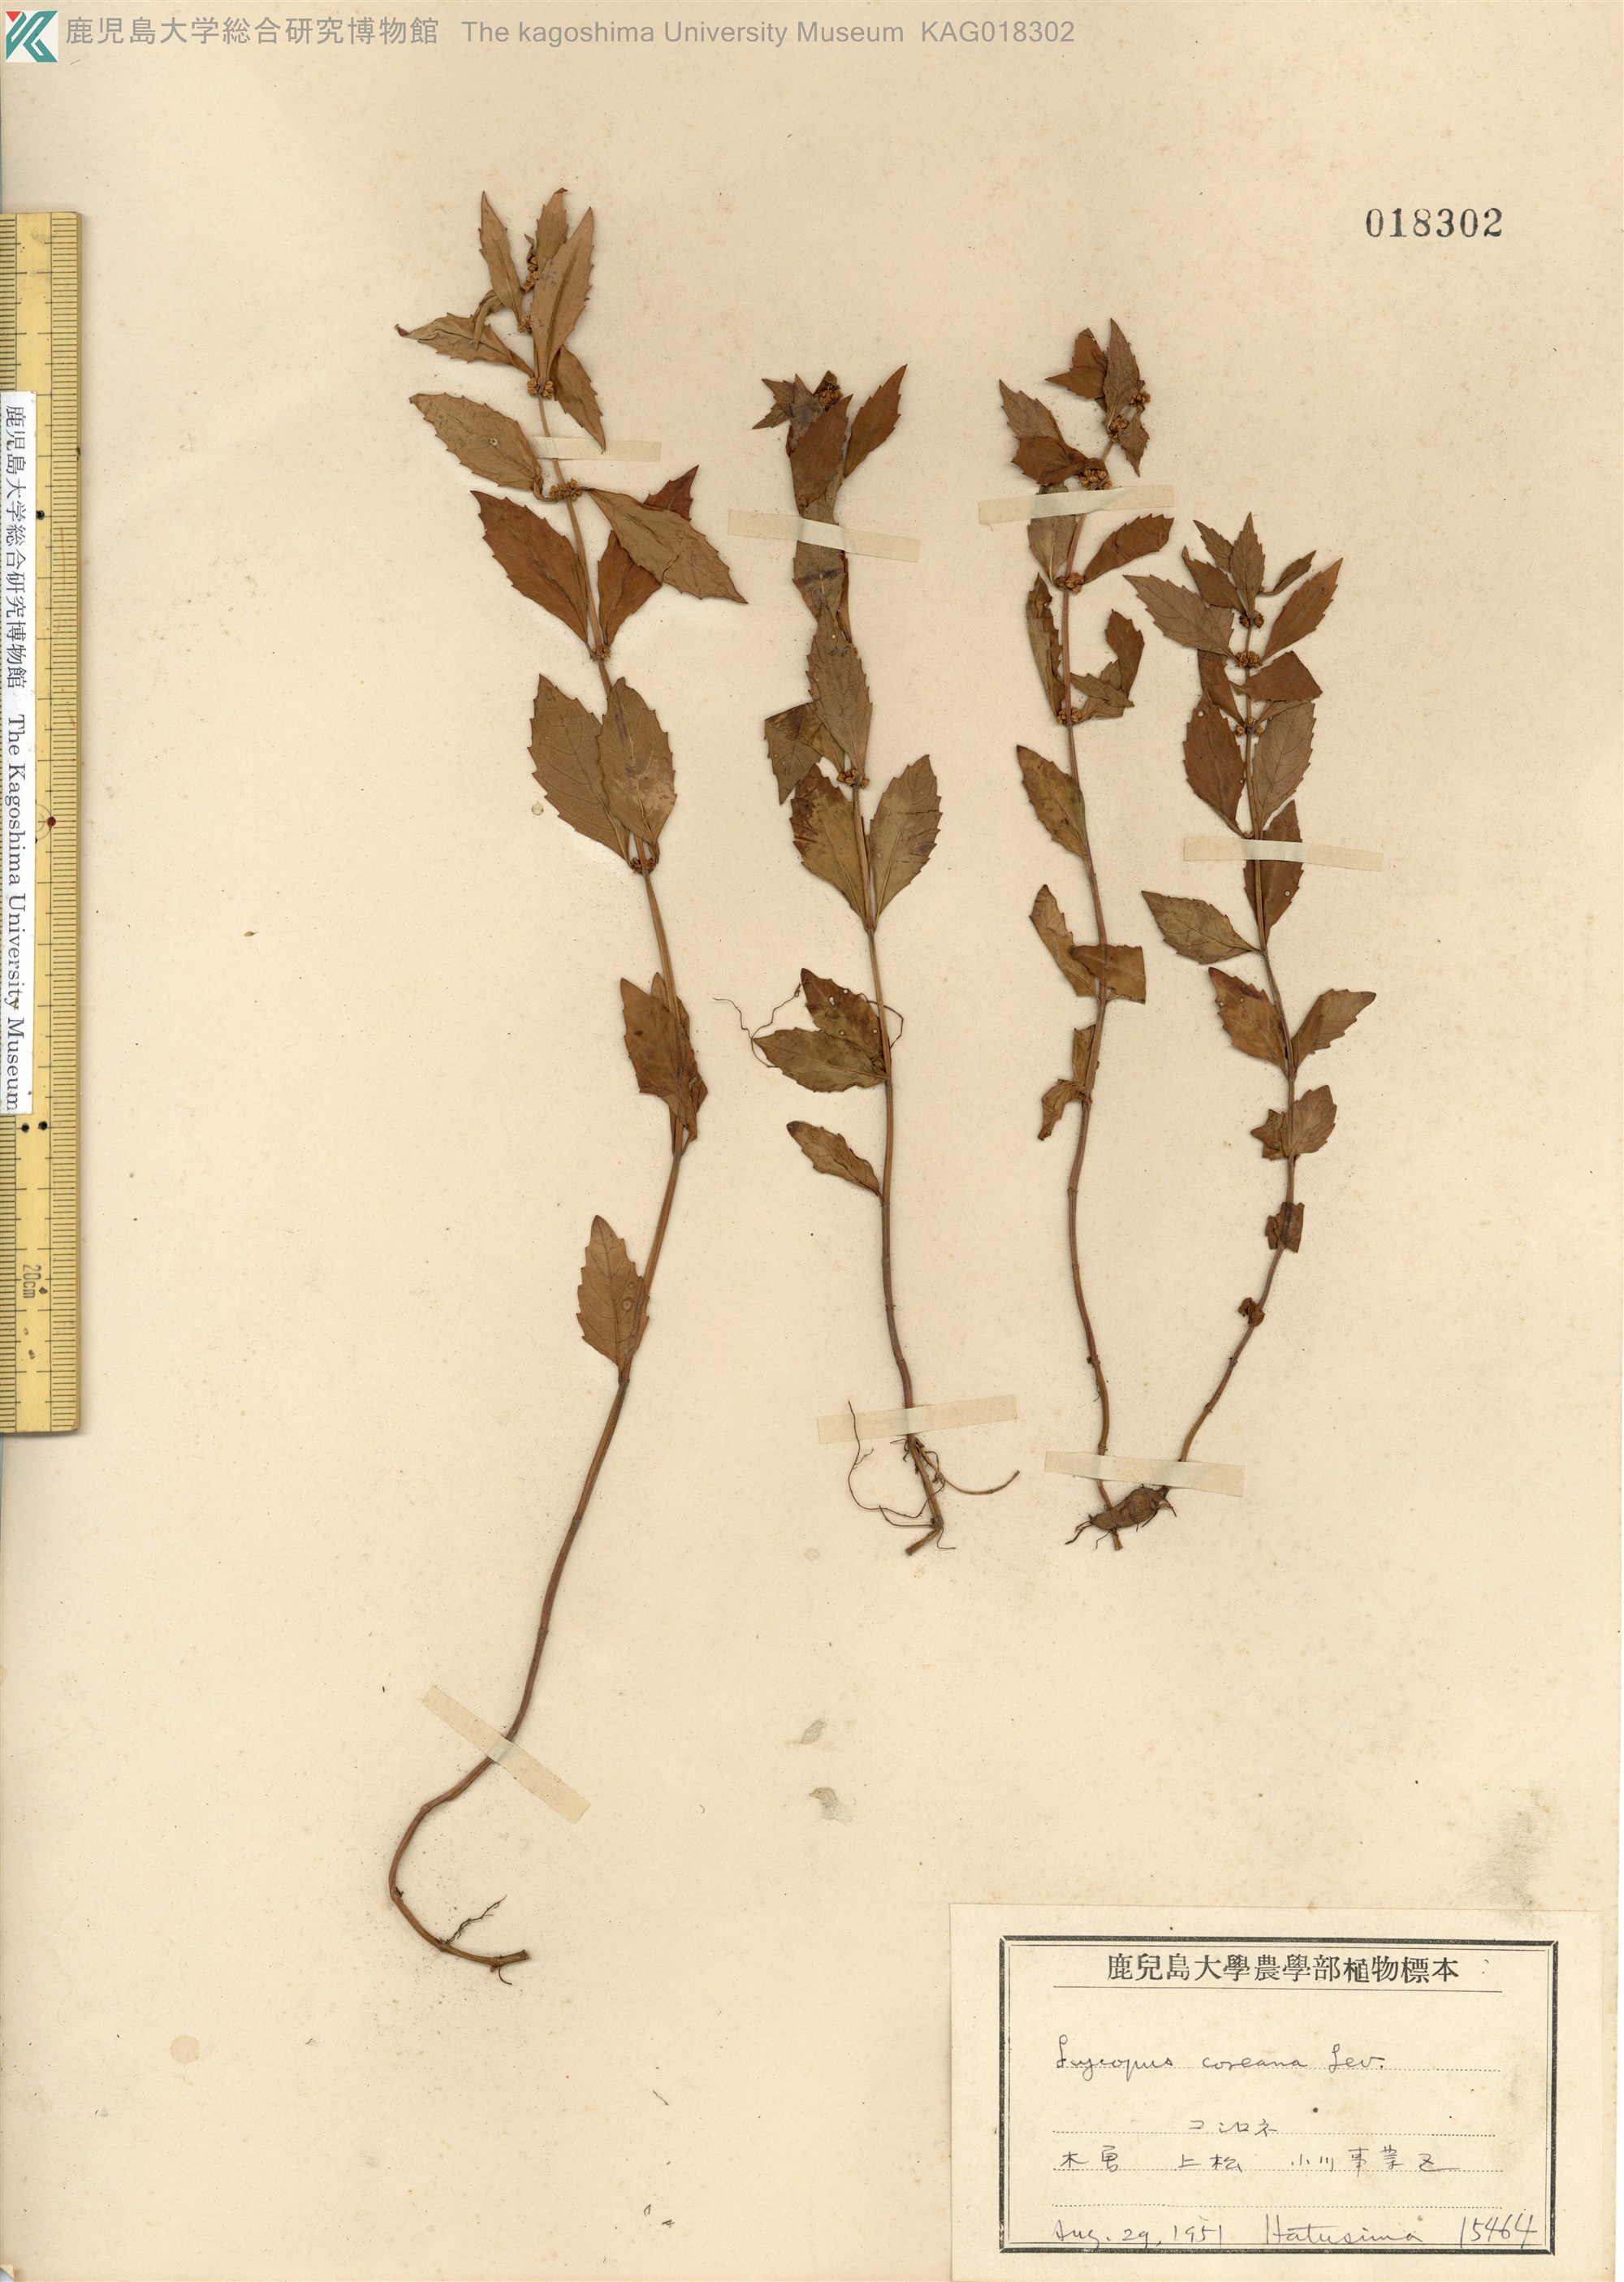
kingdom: Plantae
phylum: Tracheophyta
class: Magnoliopsida
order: Lamiales
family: Lamiaceae
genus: Lycopus
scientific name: Lycopus cavaleriei
